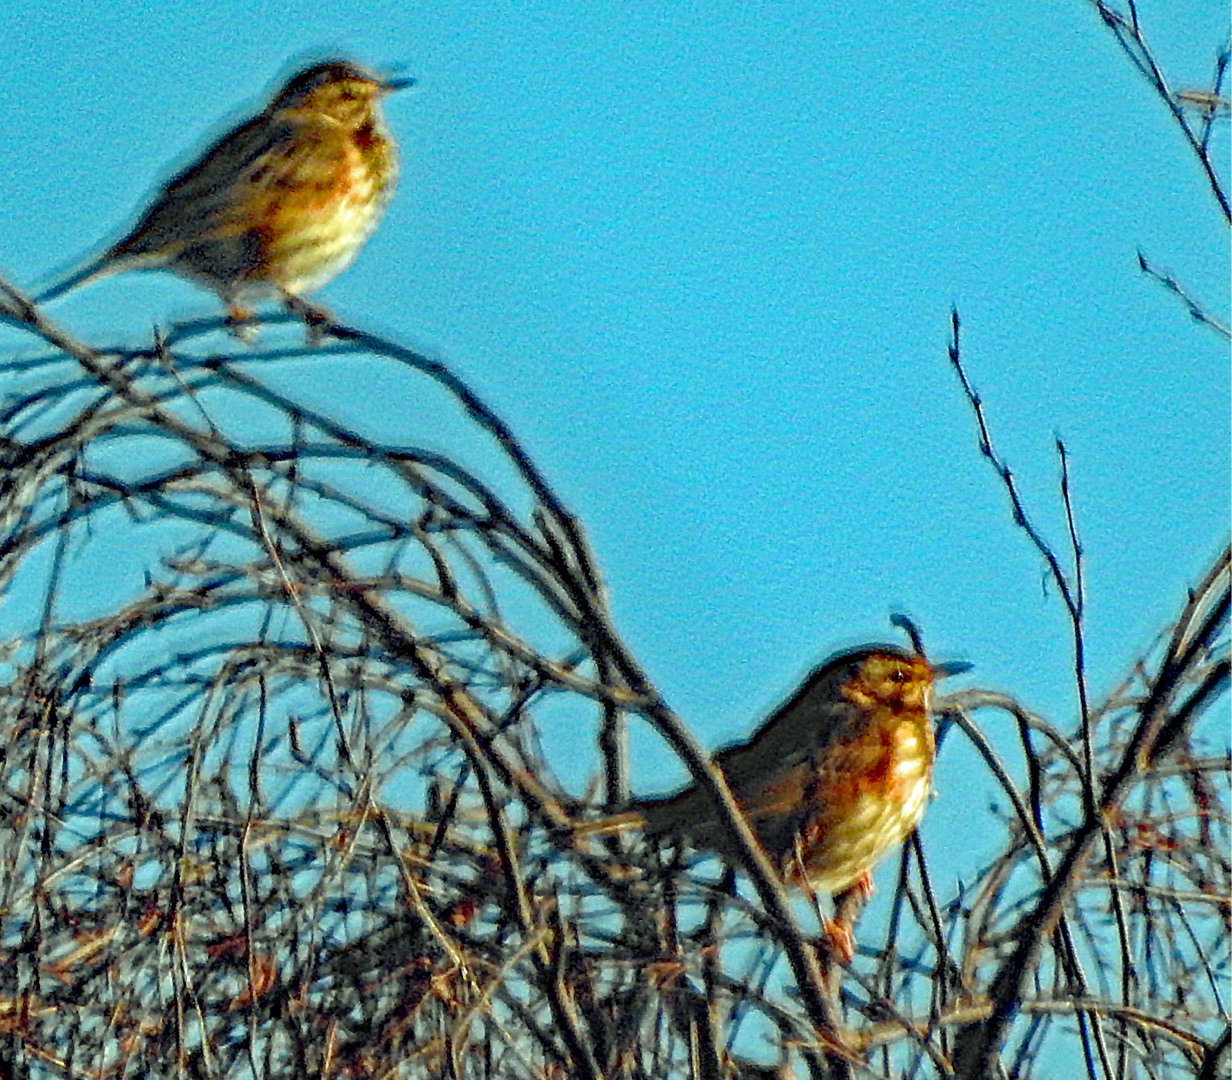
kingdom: Animalia
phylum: Chordata
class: Aves
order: Passeriformes
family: Turdidae
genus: Turdus
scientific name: Turdus iliacus
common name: Vindrossel
